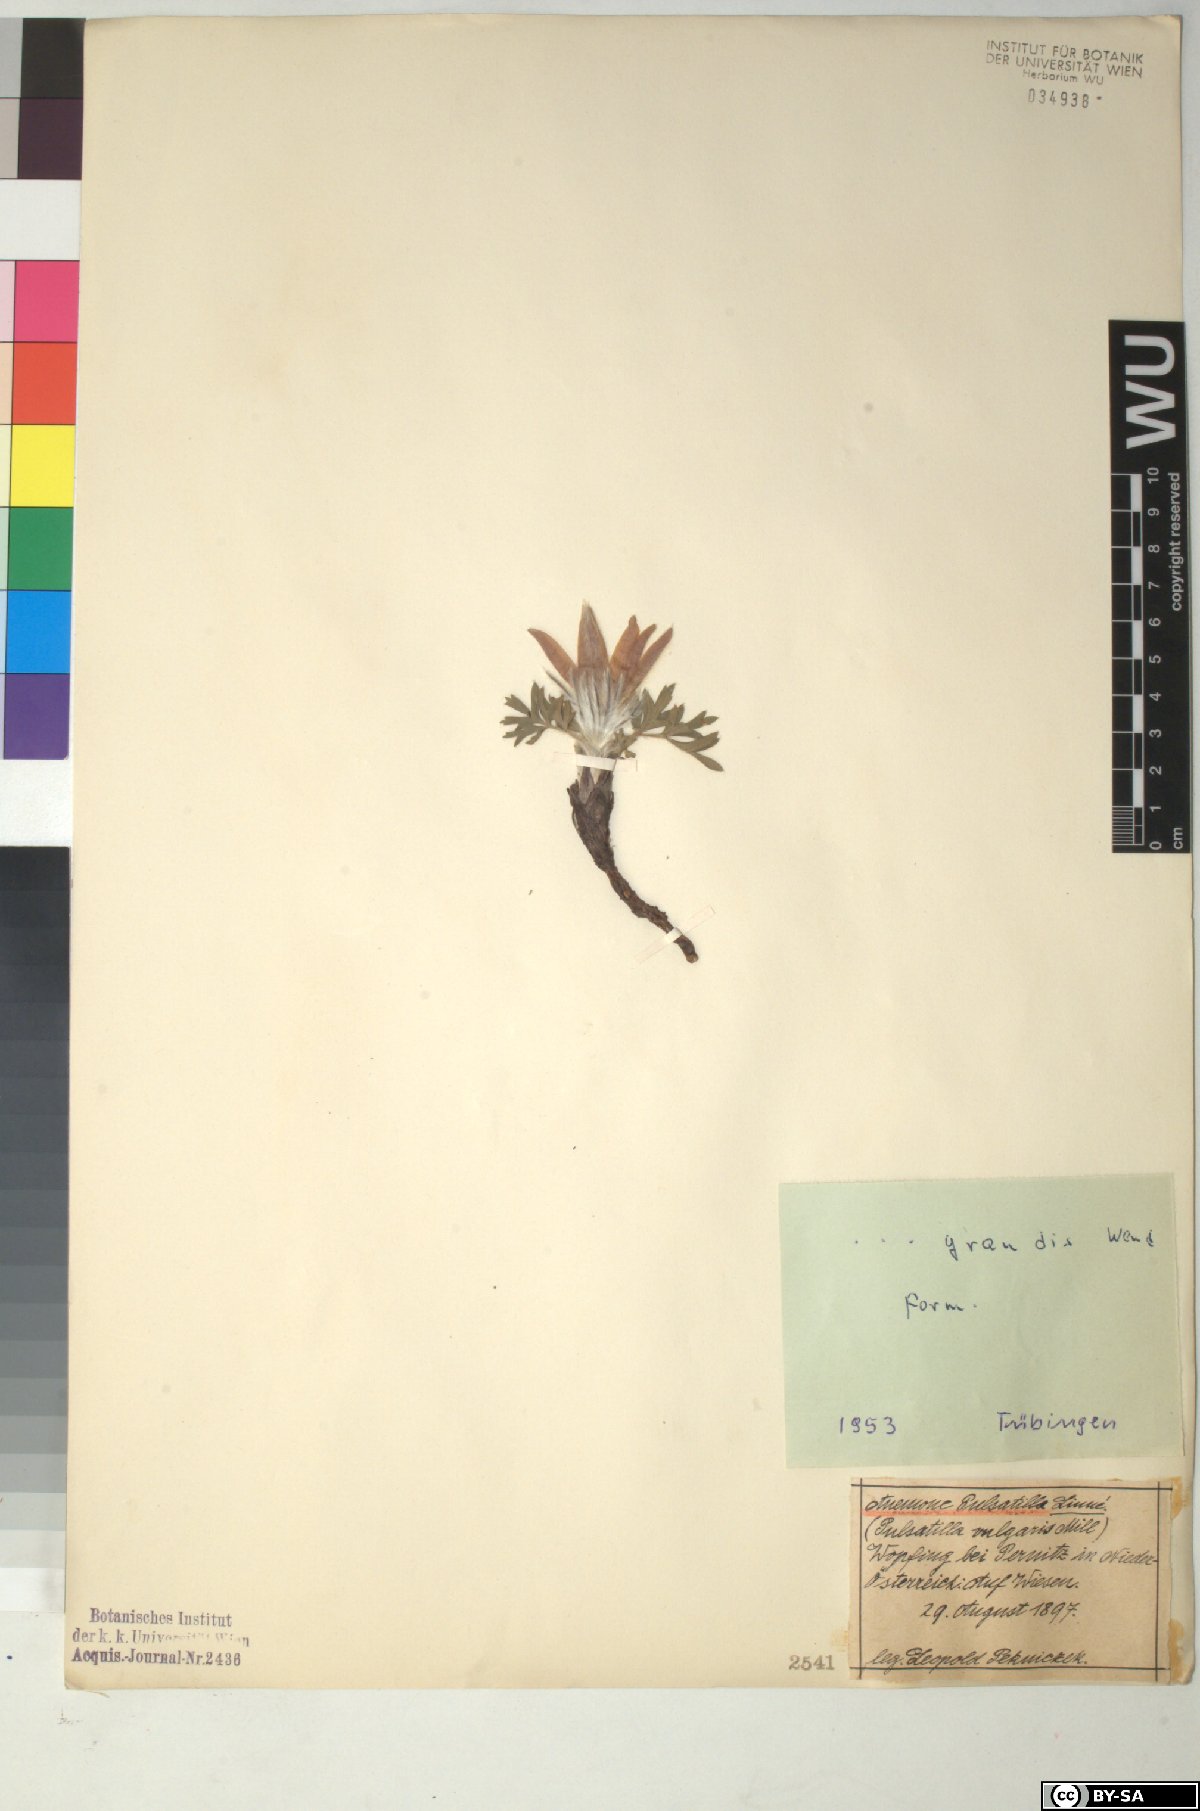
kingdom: Plantae
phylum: Tracheophyta
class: Magnoliopsida
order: Ranunculales
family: Ranunculaceae
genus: Pulsatilla
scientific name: Pulsatilla grandis
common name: Greater pasque flower
